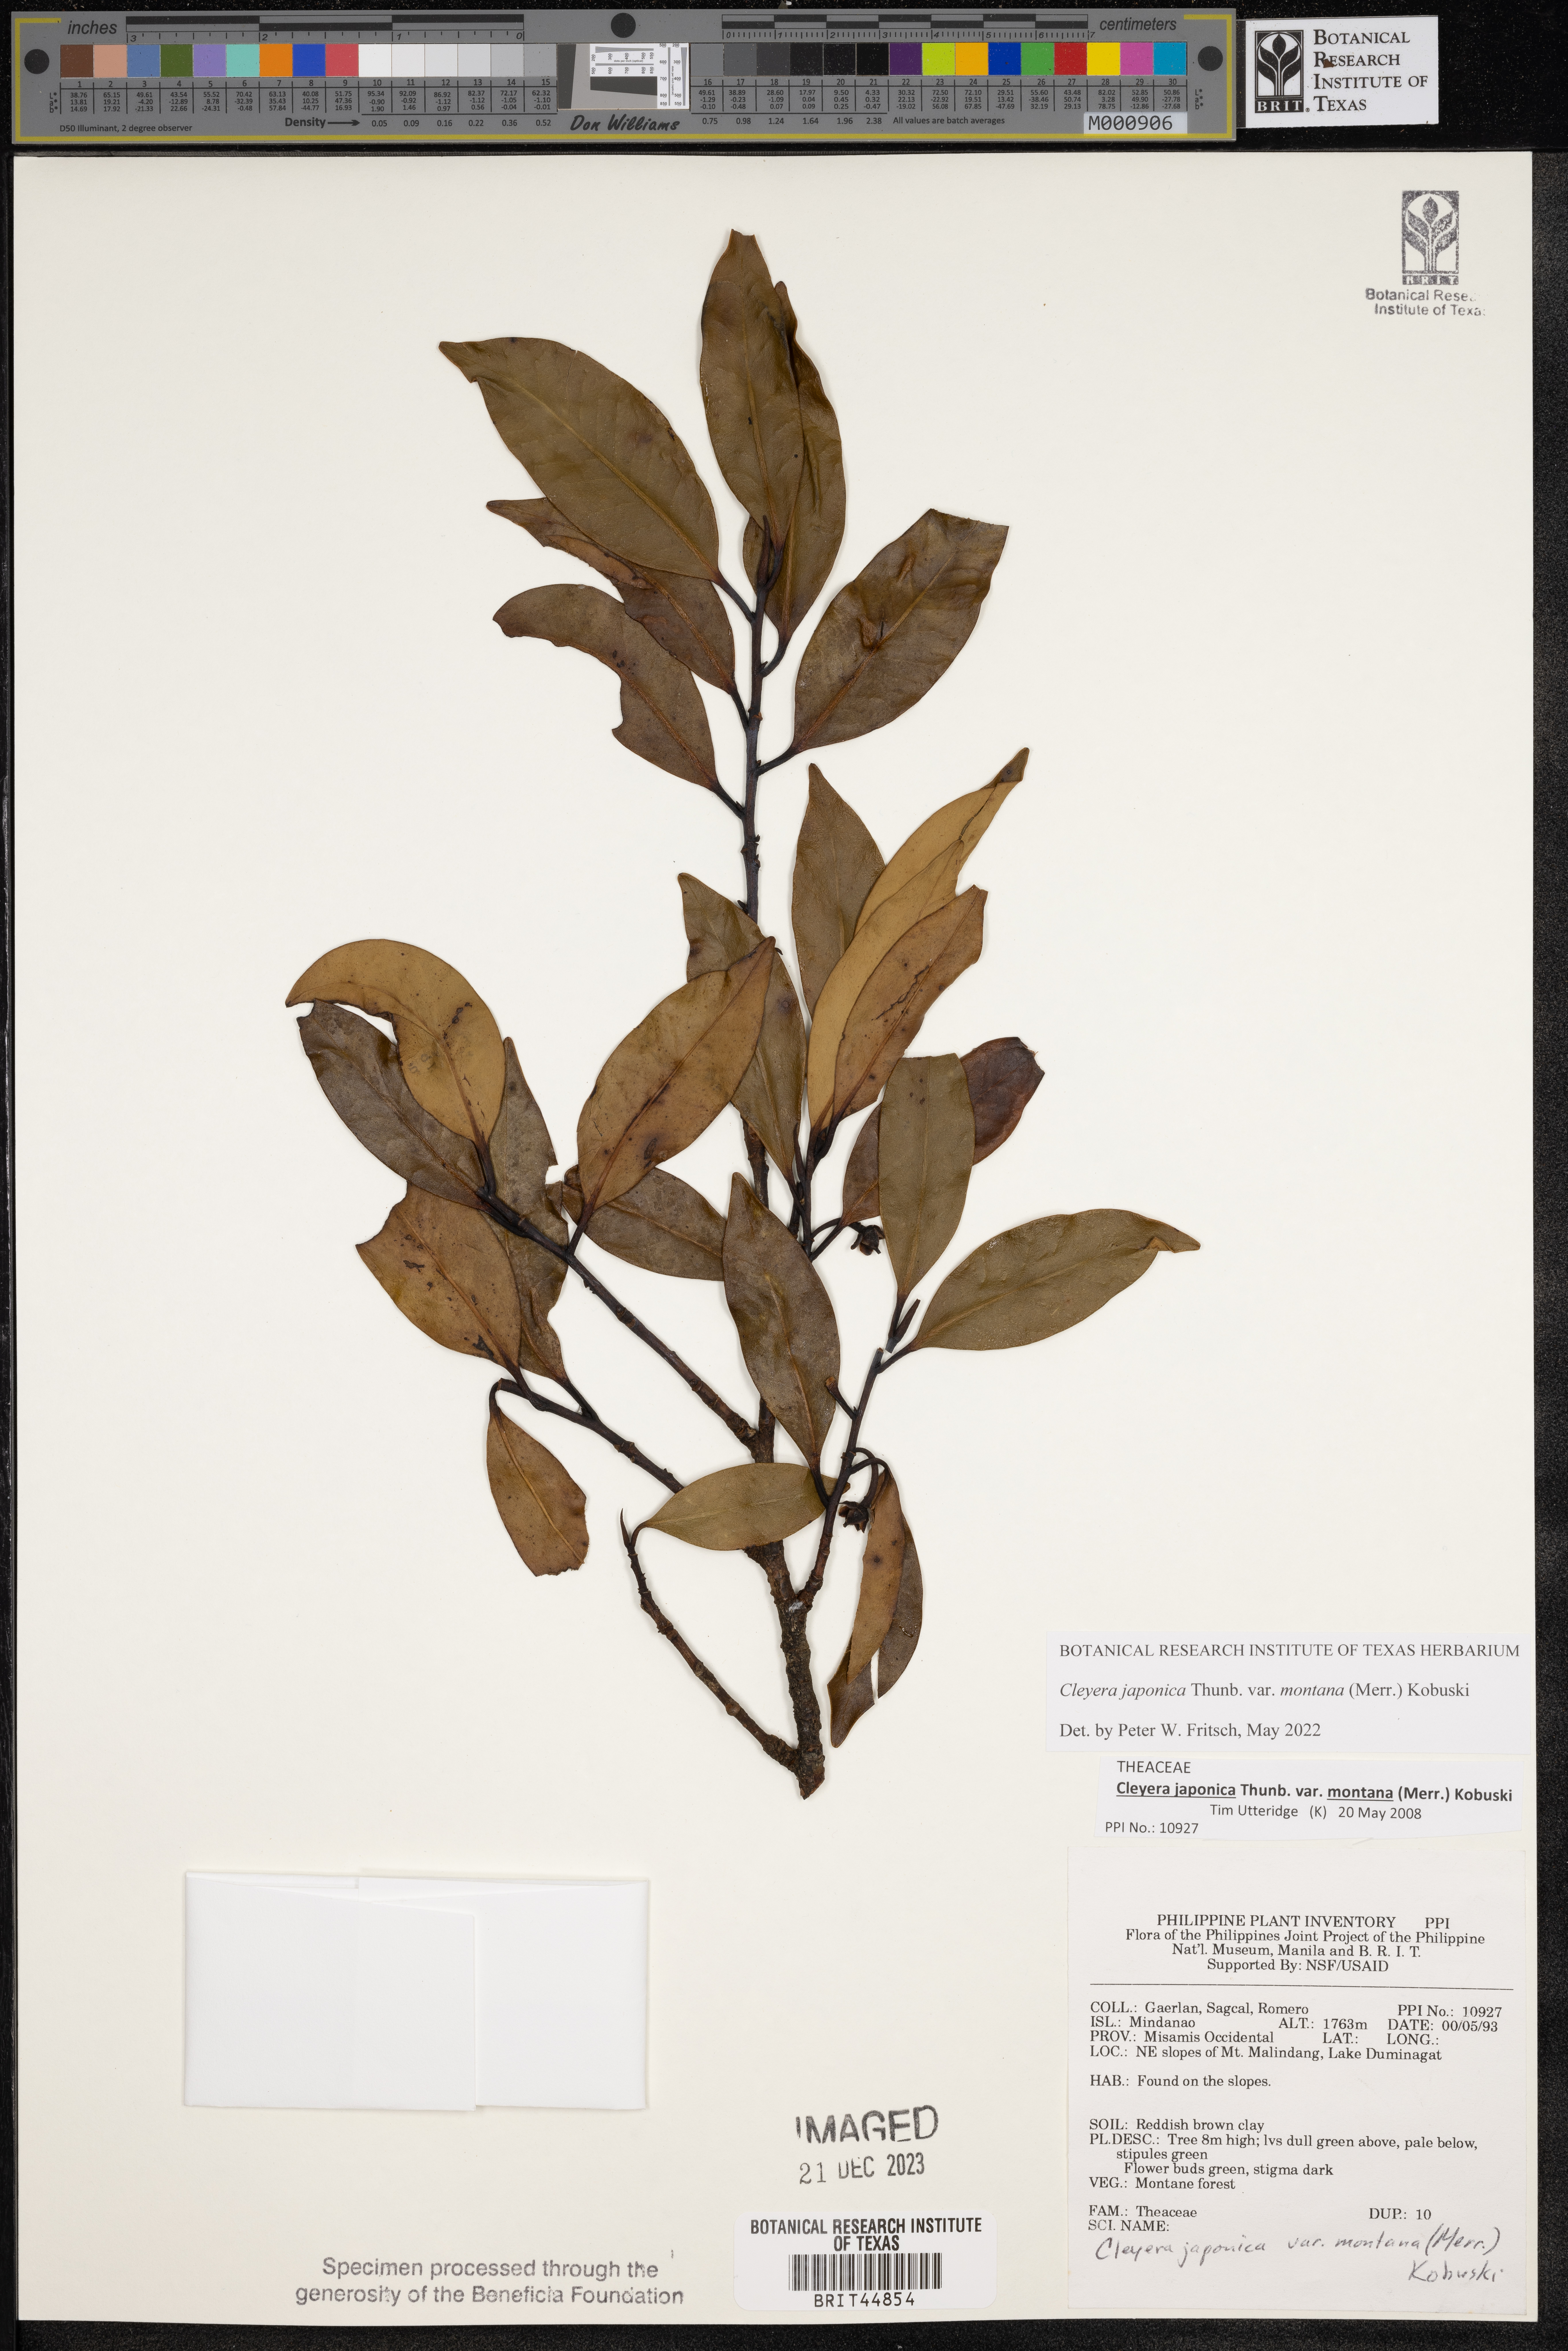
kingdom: Plantae
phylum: Tracheophyta
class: Magnoliopsida
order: Ericales
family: Pentaphylacaceae
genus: Cleyera
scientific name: Cleyera japonica
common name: Sakaki
